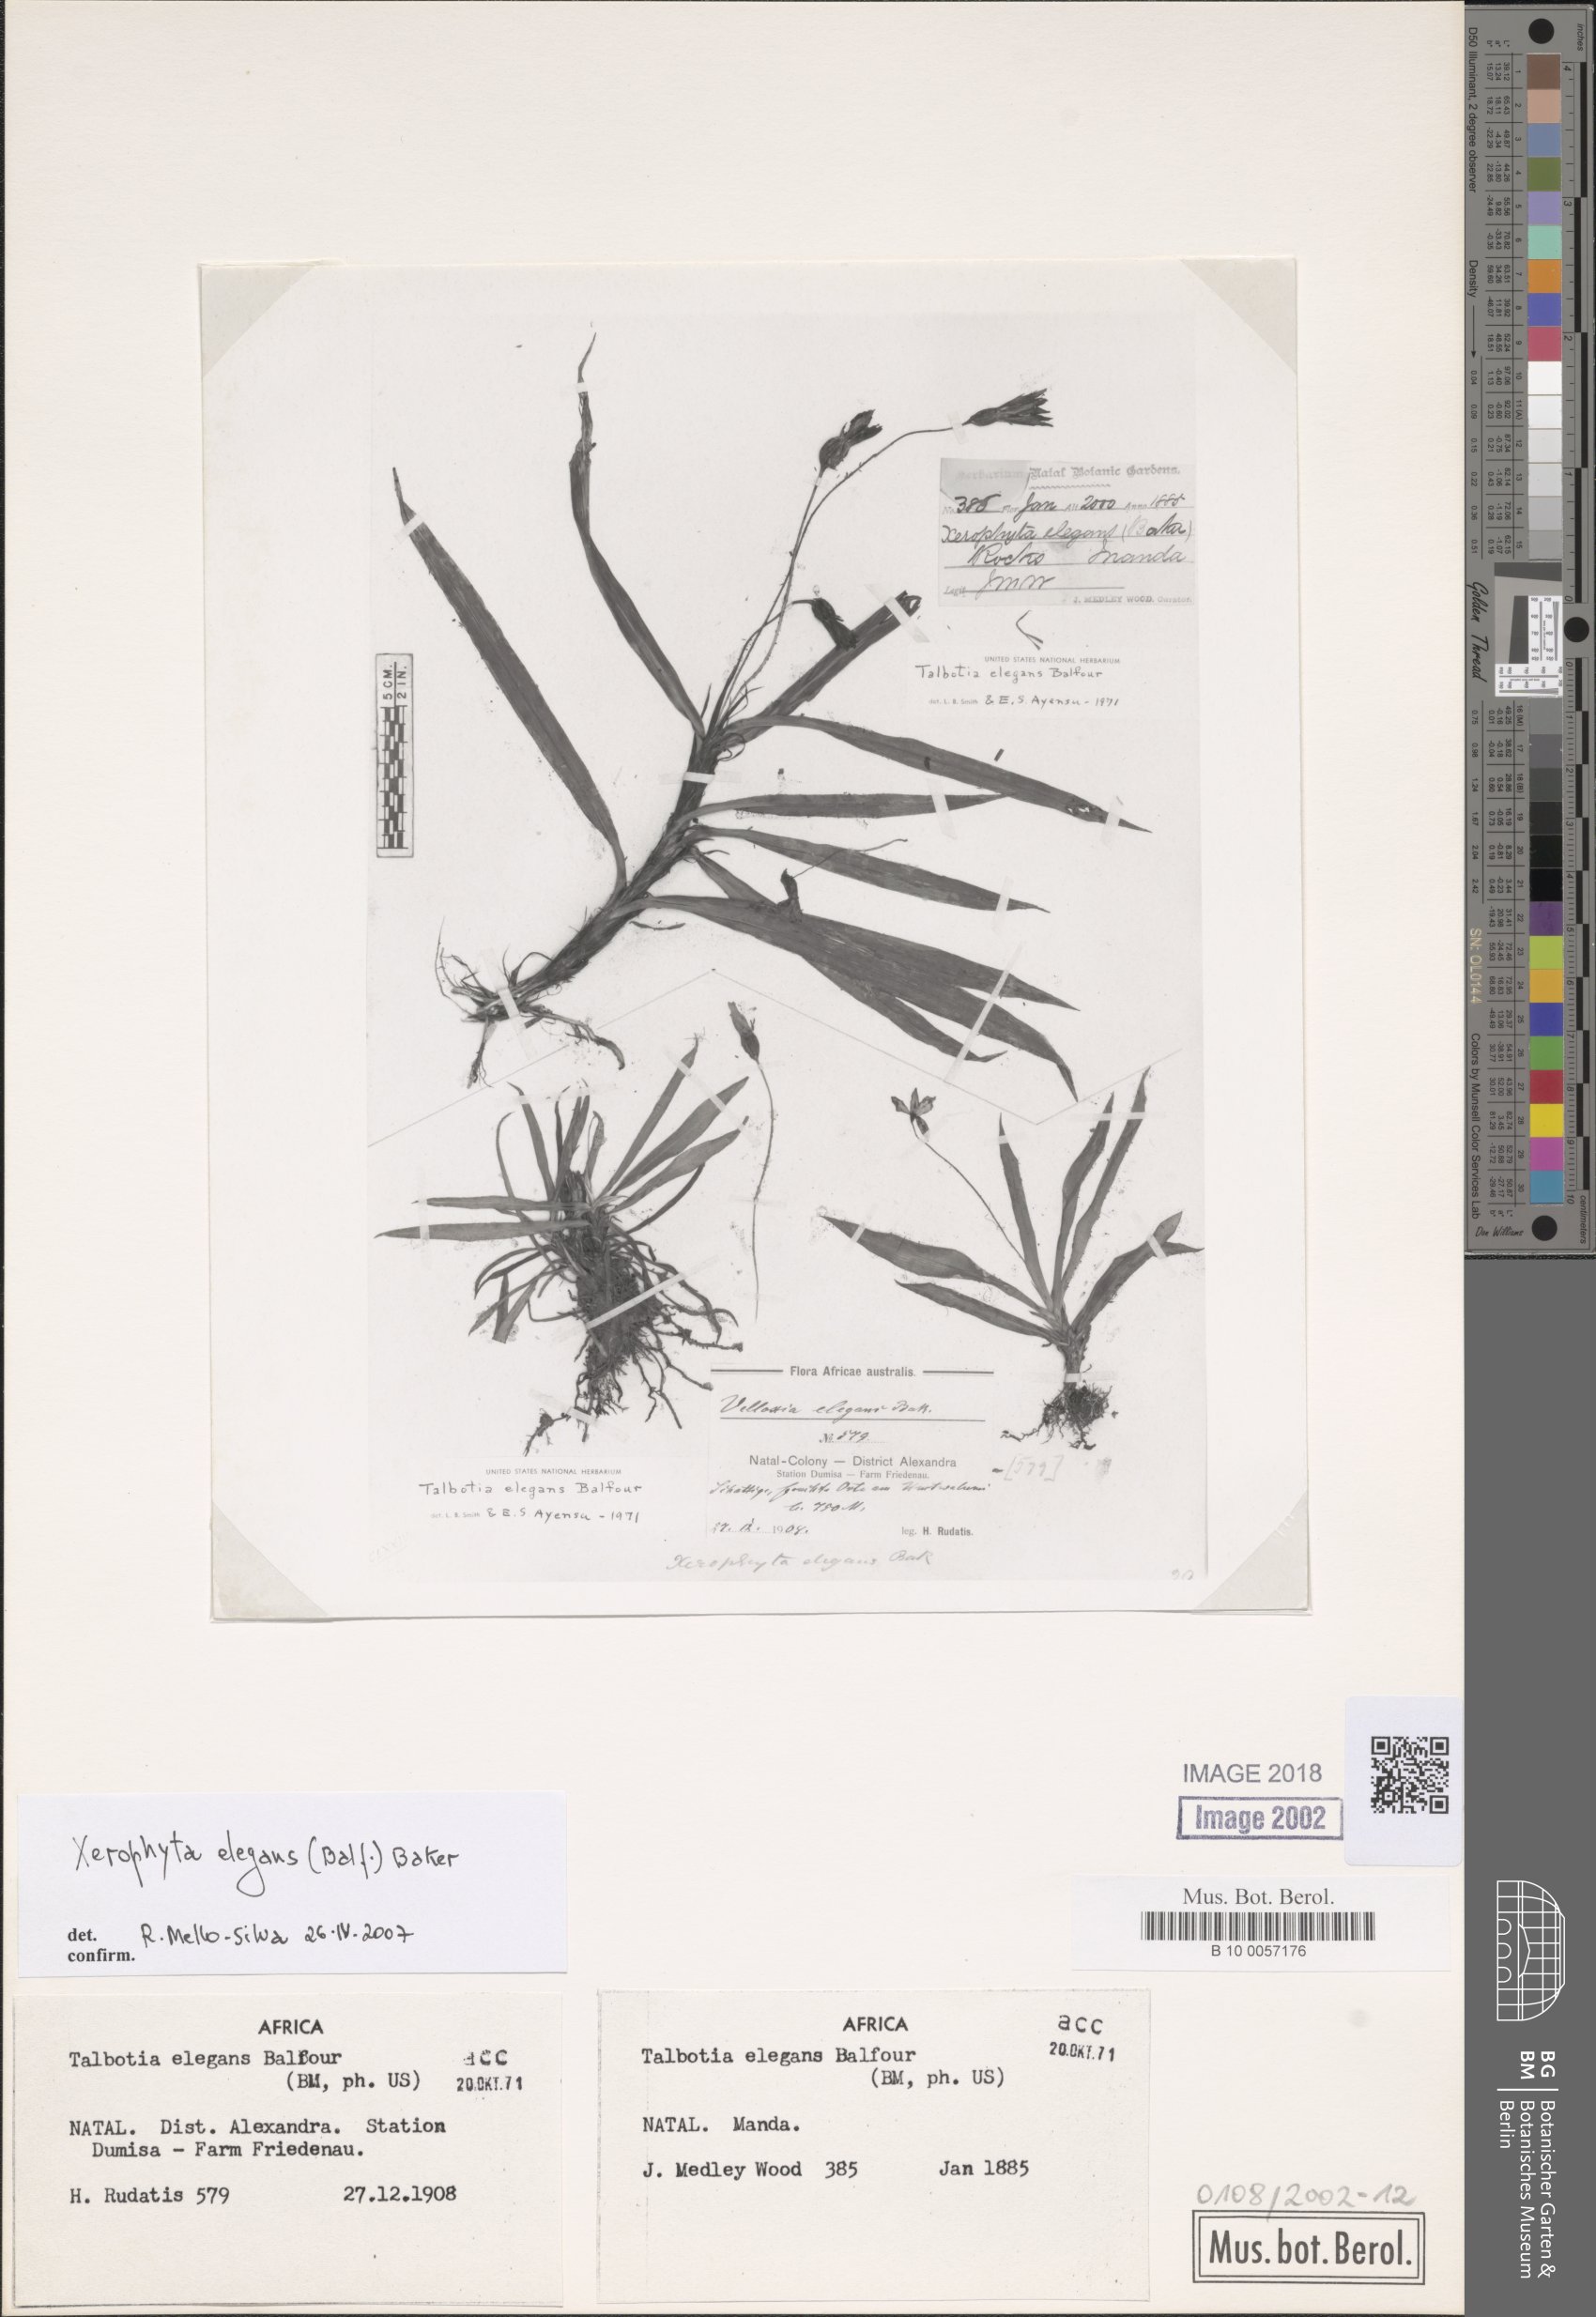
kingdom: Plantae
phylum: Tracheophyta
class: Liliopsida
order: Pandanales
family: Velloziaceae
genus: Xerophyta
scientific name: Xerophyta elegans
